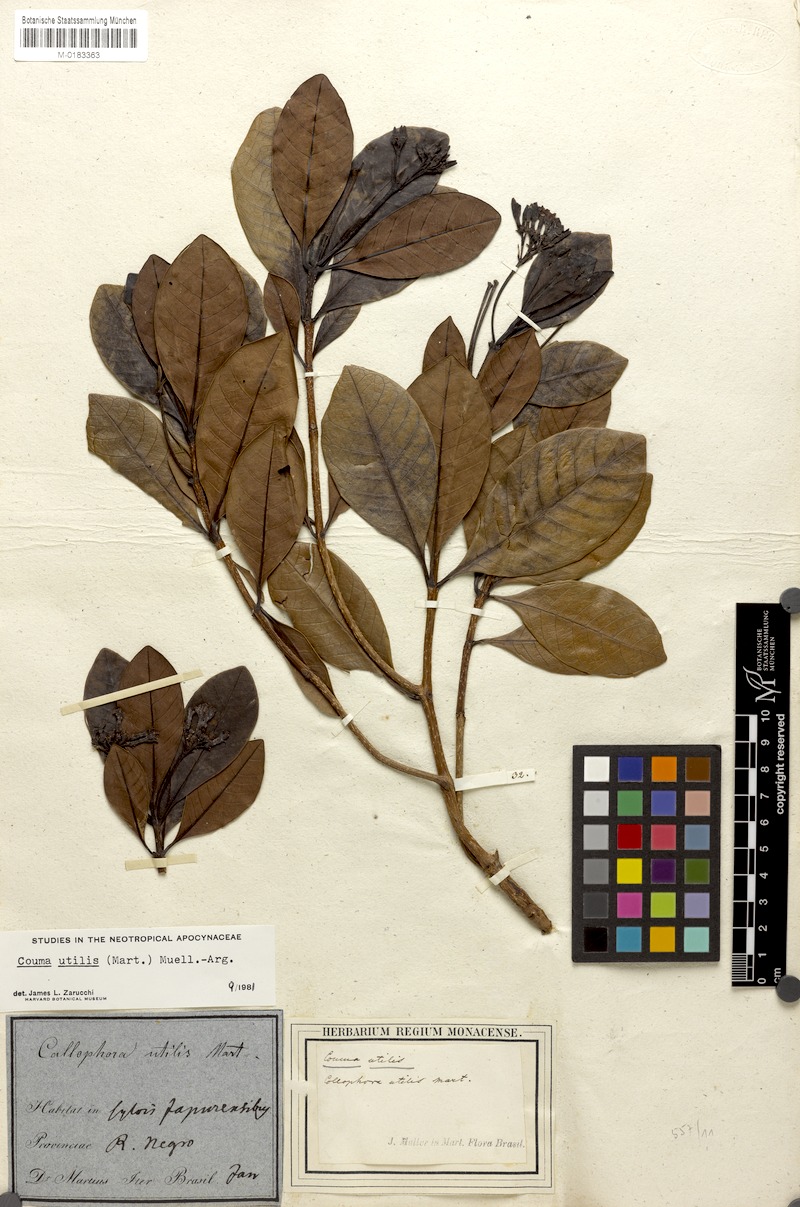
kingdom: Plantae
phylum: Tracheophyta
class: Magnoliopsida
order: Gentianales
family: Apocynaceae
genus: Couma
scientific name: Couma utilis
